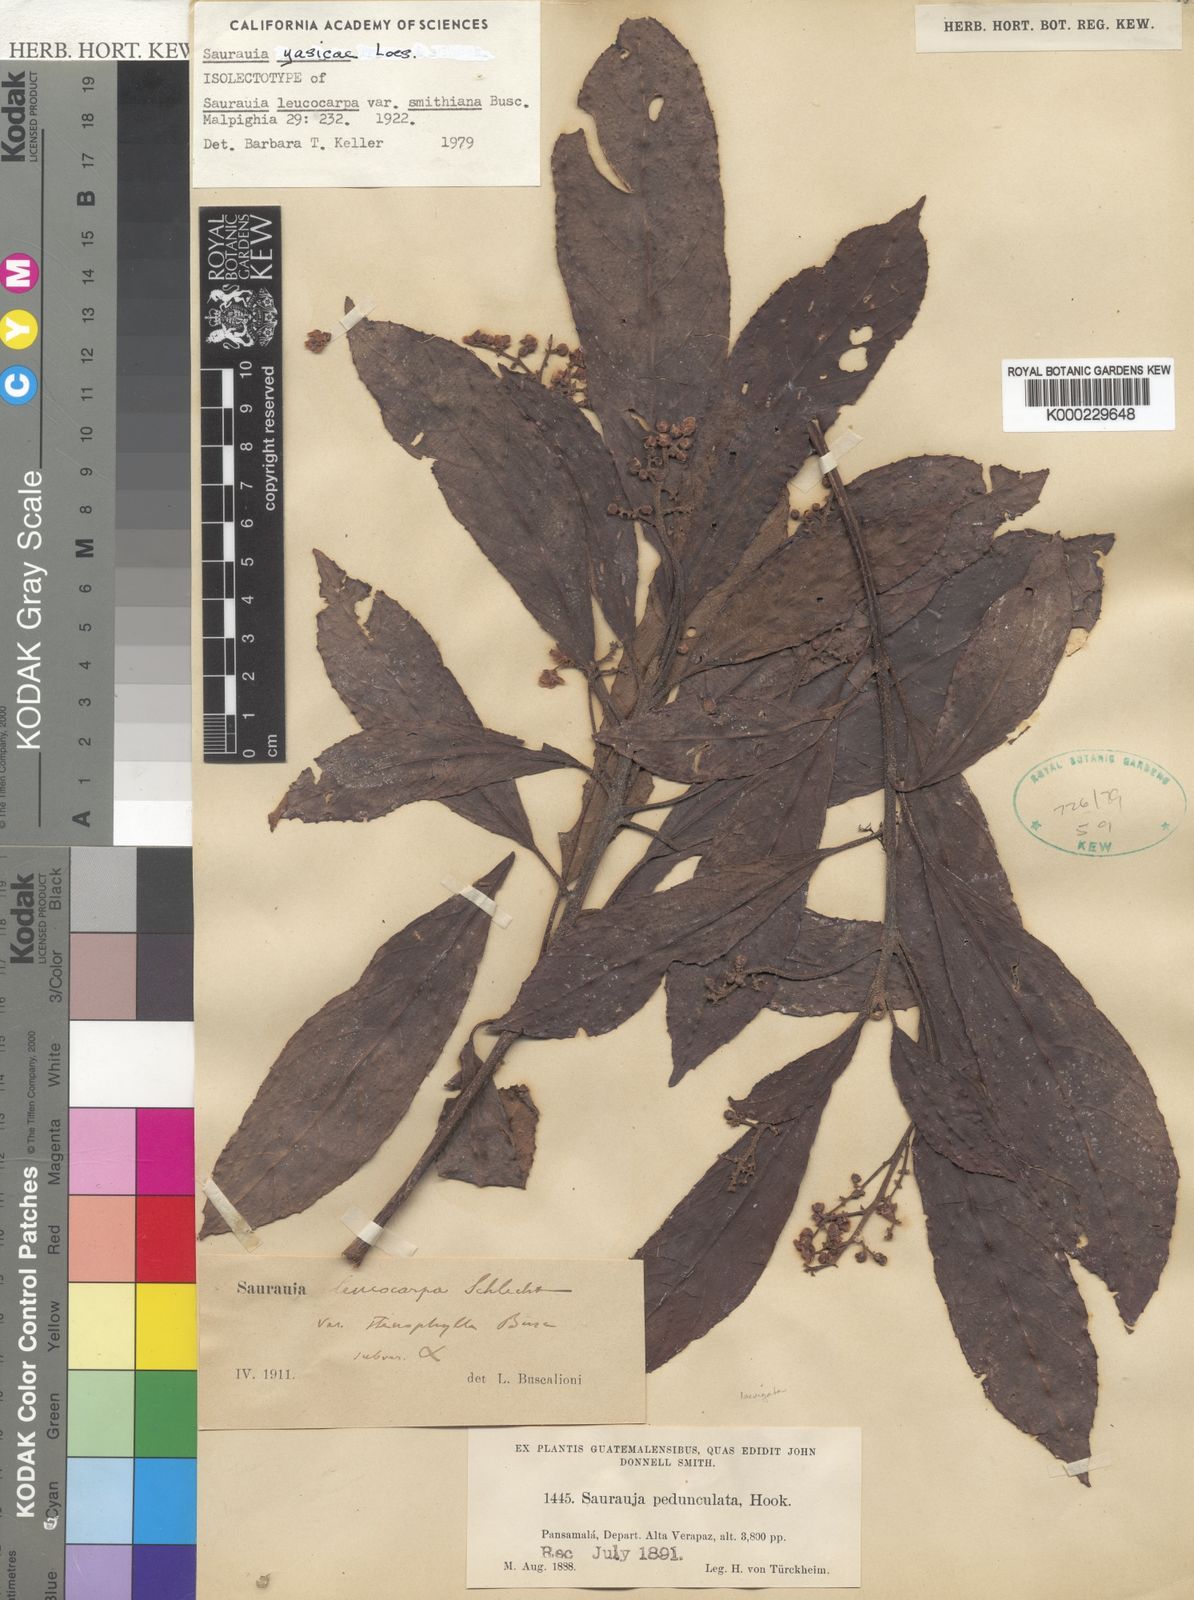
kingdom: Plantae
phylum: Tracheophyta
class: Magnoliopsida
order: Ericales
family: Actinidiaceae
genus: Saurauia
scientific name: Saurauia yasicae
